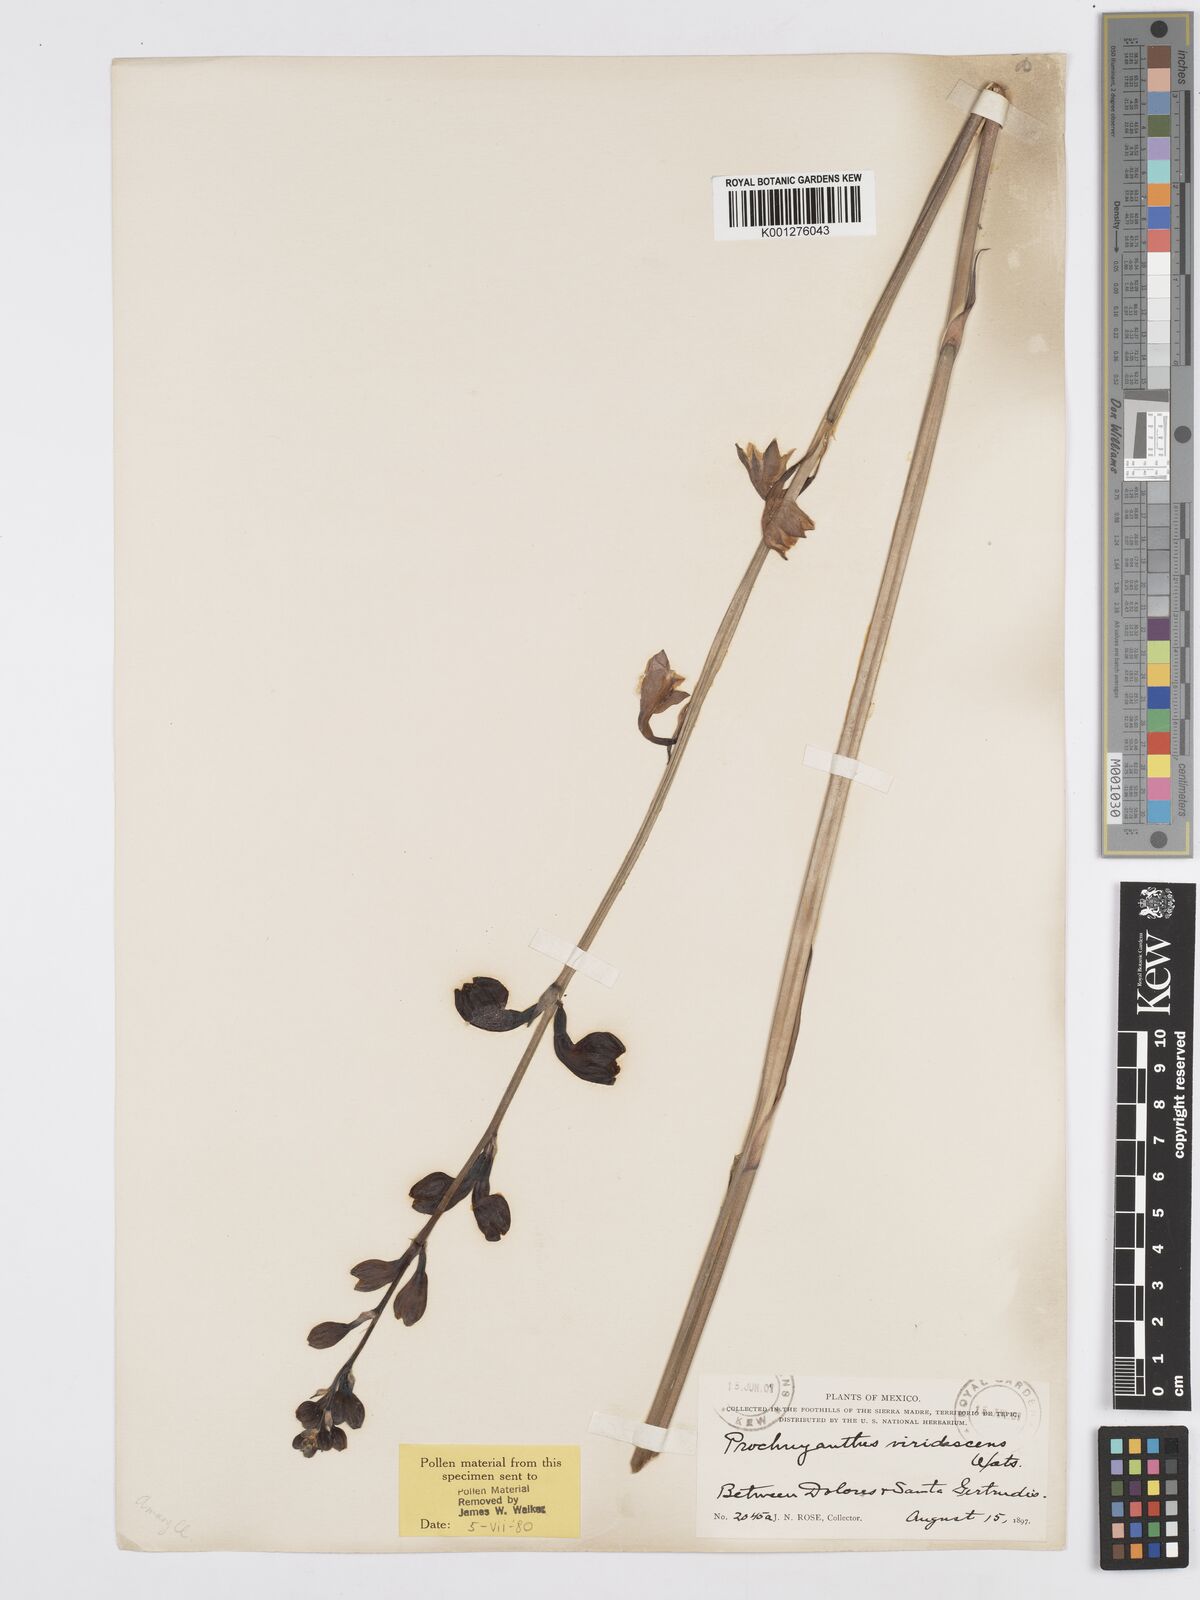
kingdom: Plantae
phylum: Tracheophyta
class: Liliopsida
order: Asparagales
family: Asparagaceae
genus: Agave
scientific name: Agave
